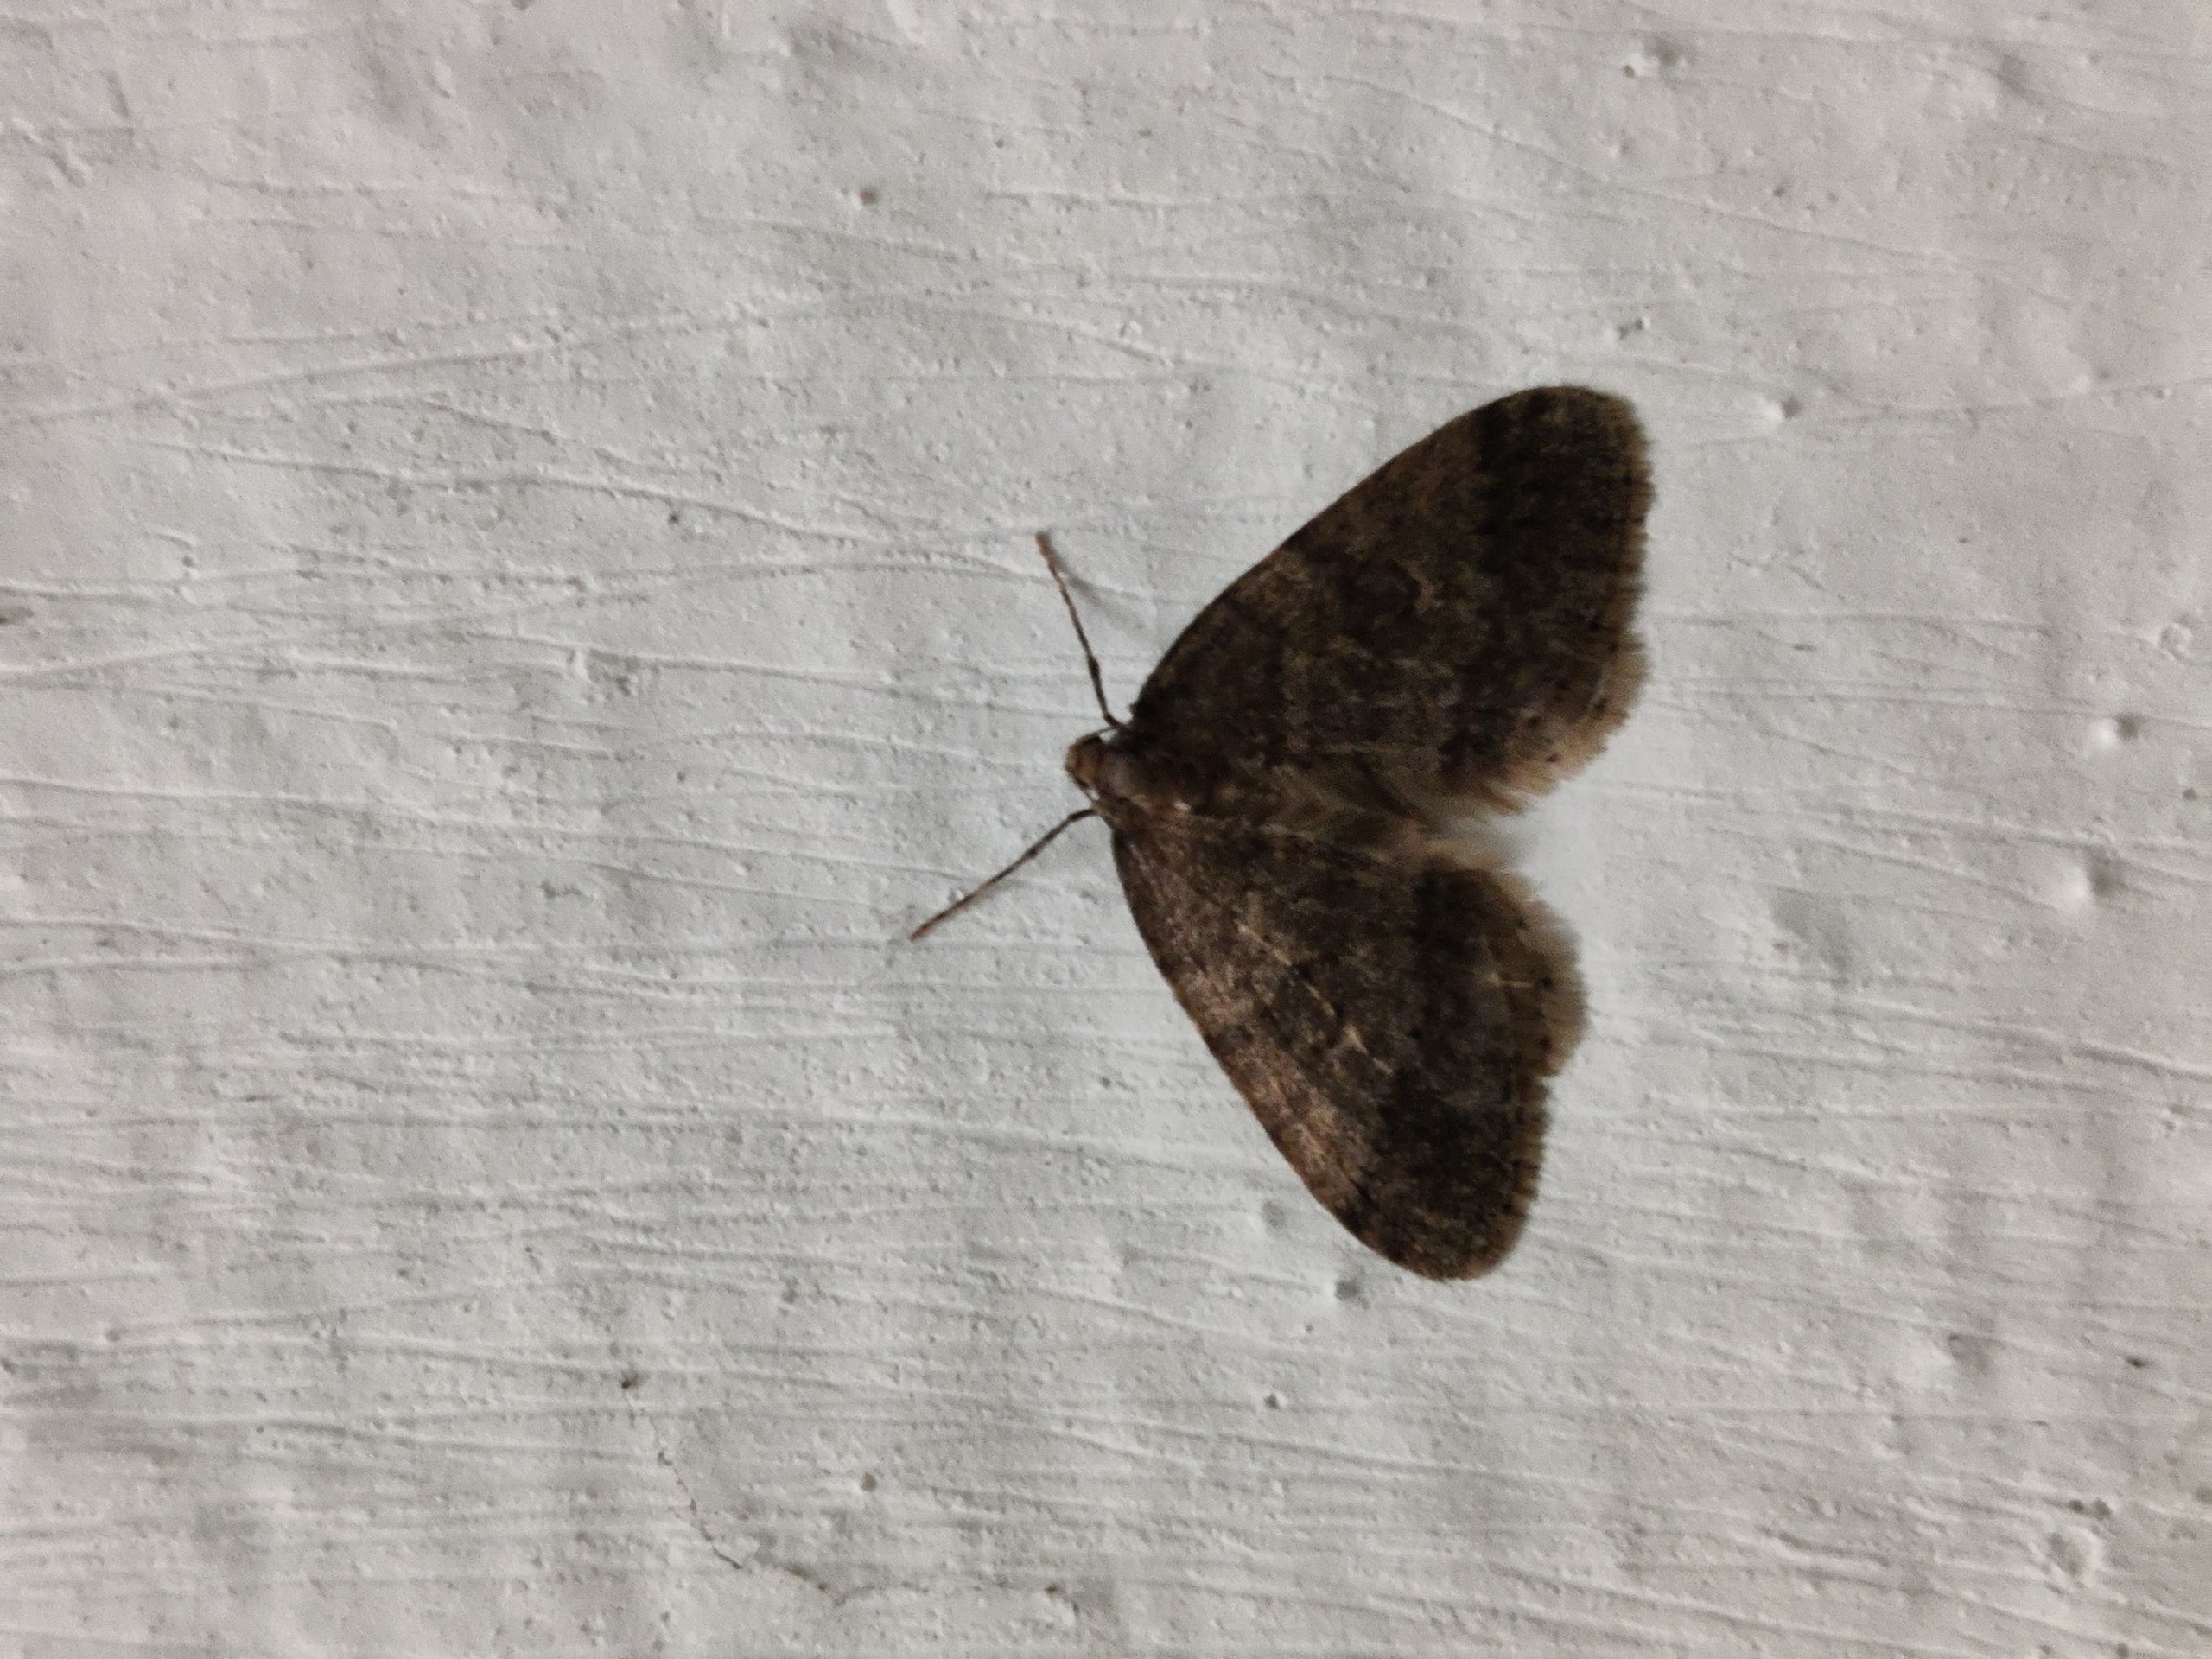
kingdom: Animalia
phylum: Arthropoda
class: Insecta
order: Lepidoptera
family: Geometridae
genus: Operophtera
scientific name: Operophtera brumata
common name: Lille frostmåler
